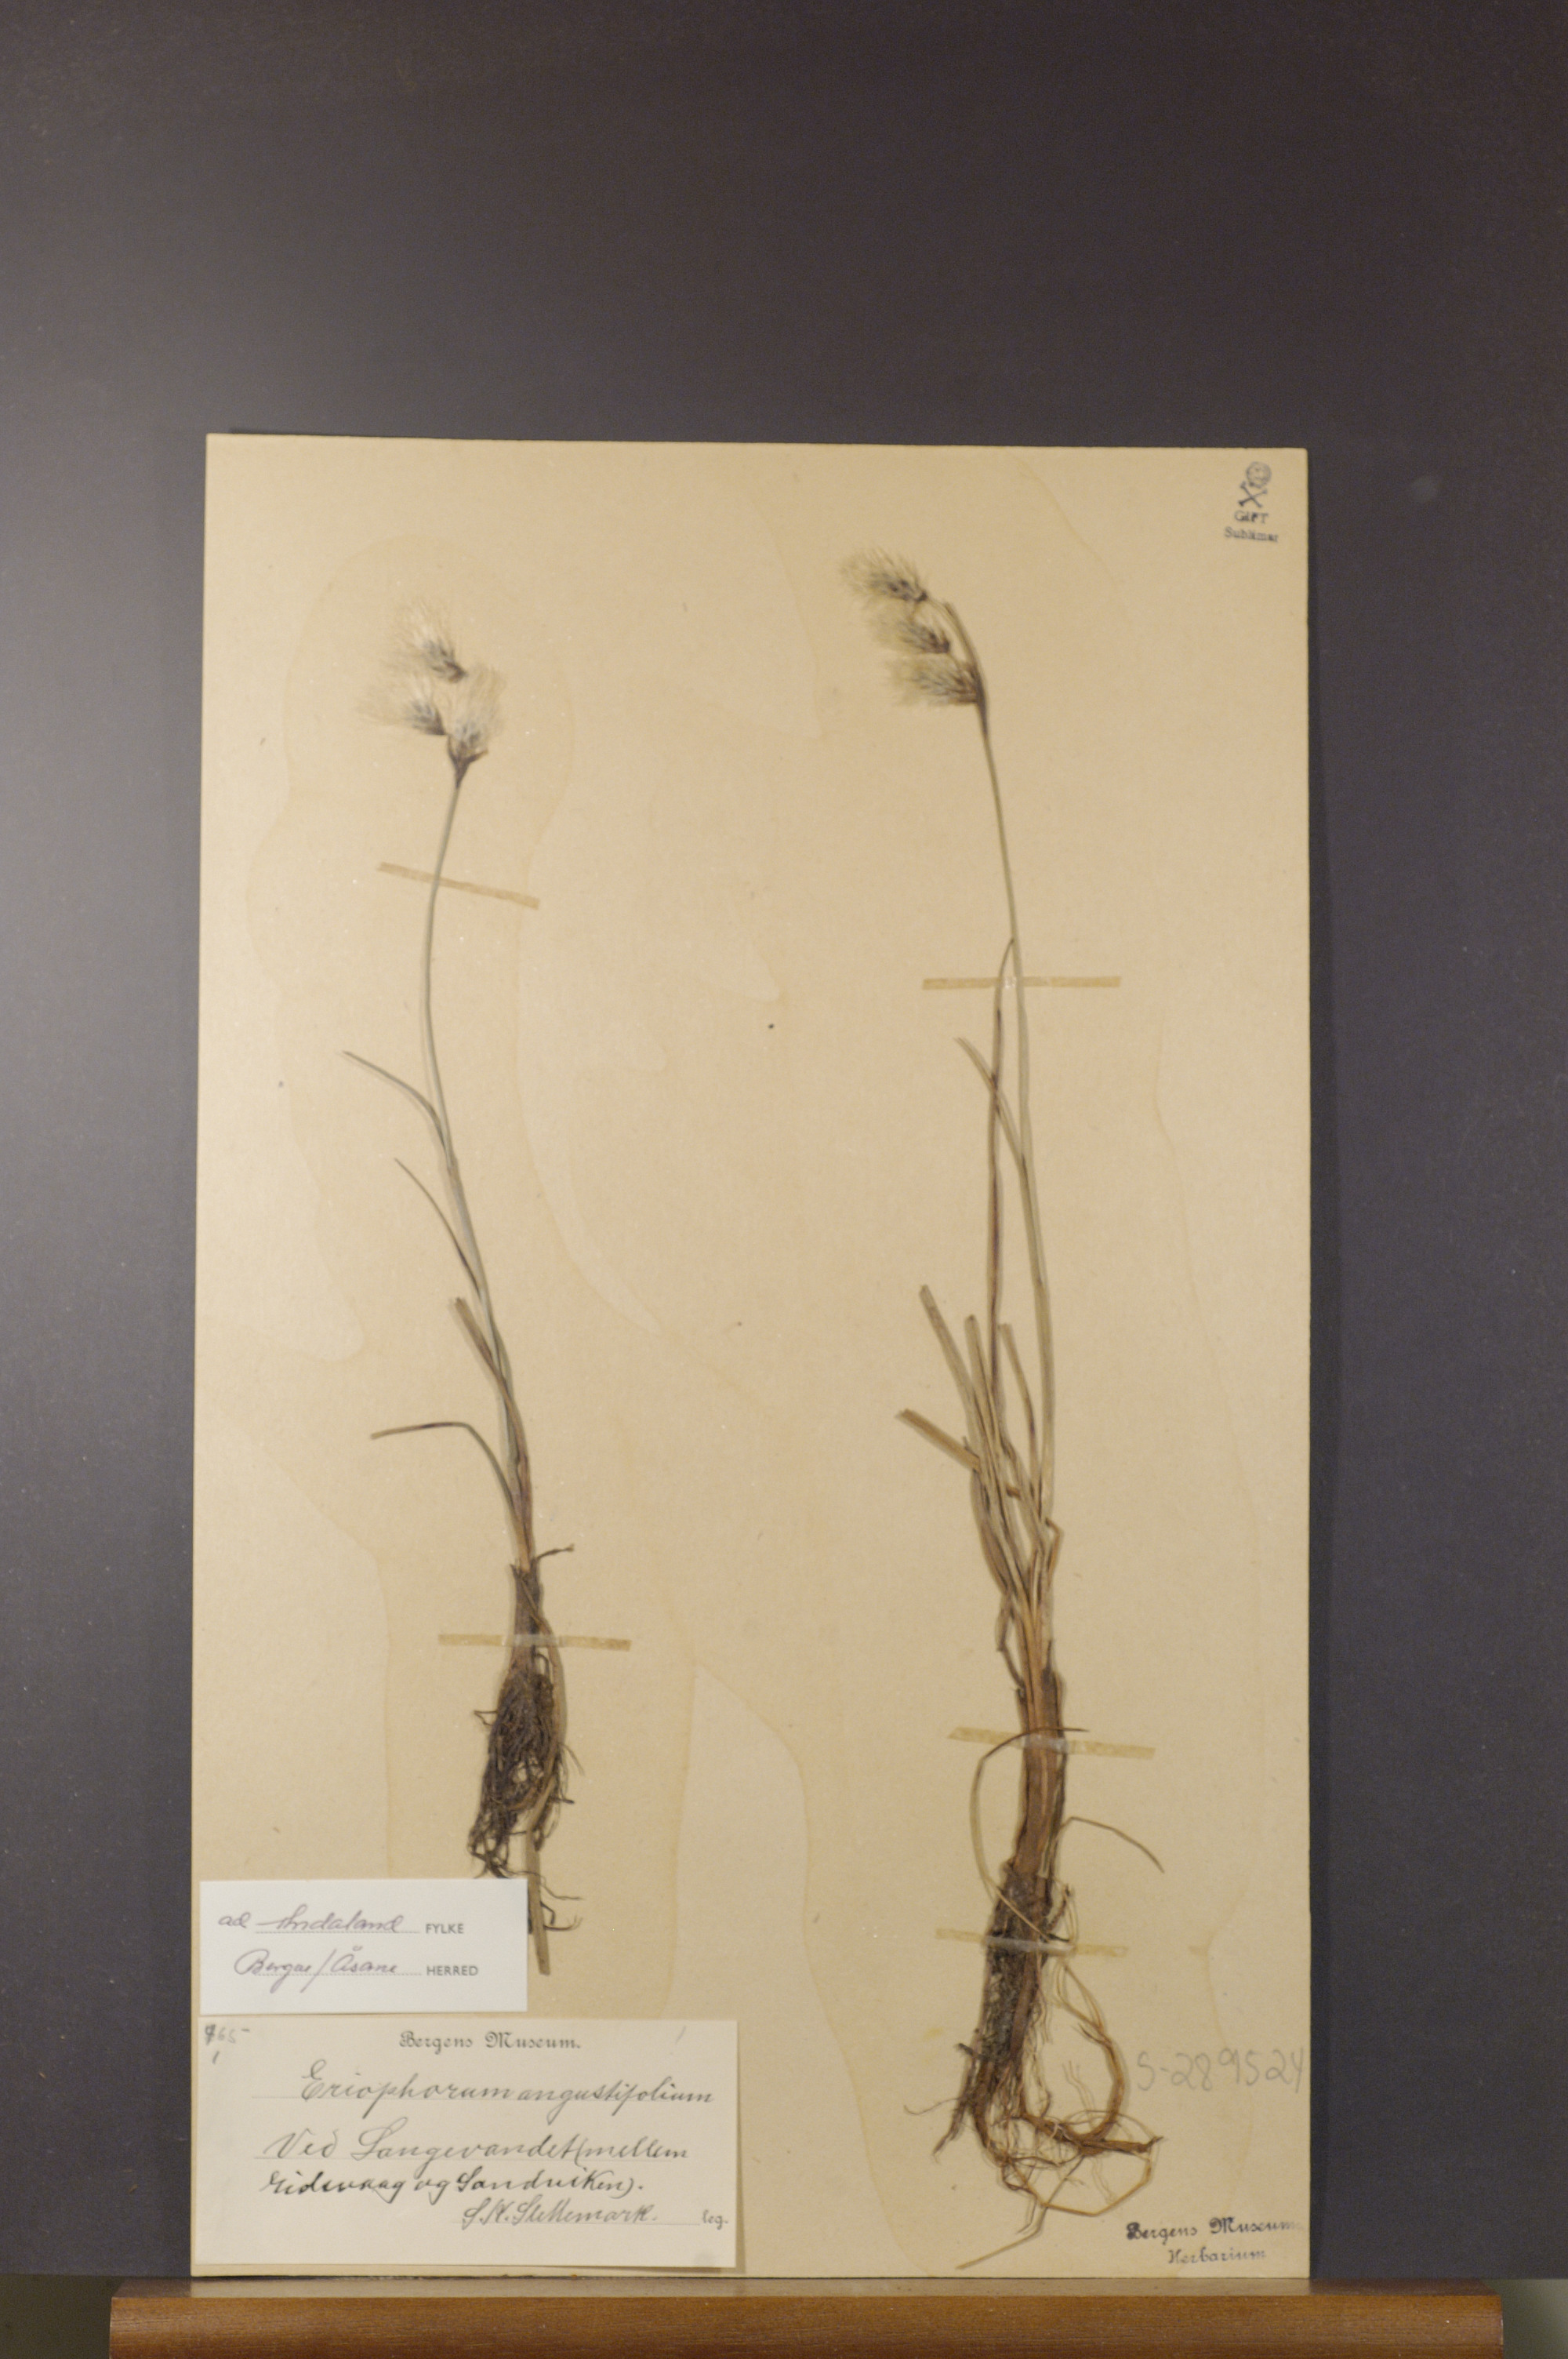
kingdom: Plantae
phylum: Tracheophyta
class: Liliopsida
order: Poales
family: Cyperaceae
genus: Eriophorum
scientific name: Eriophorum angustifolium
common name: Common cottongrass
